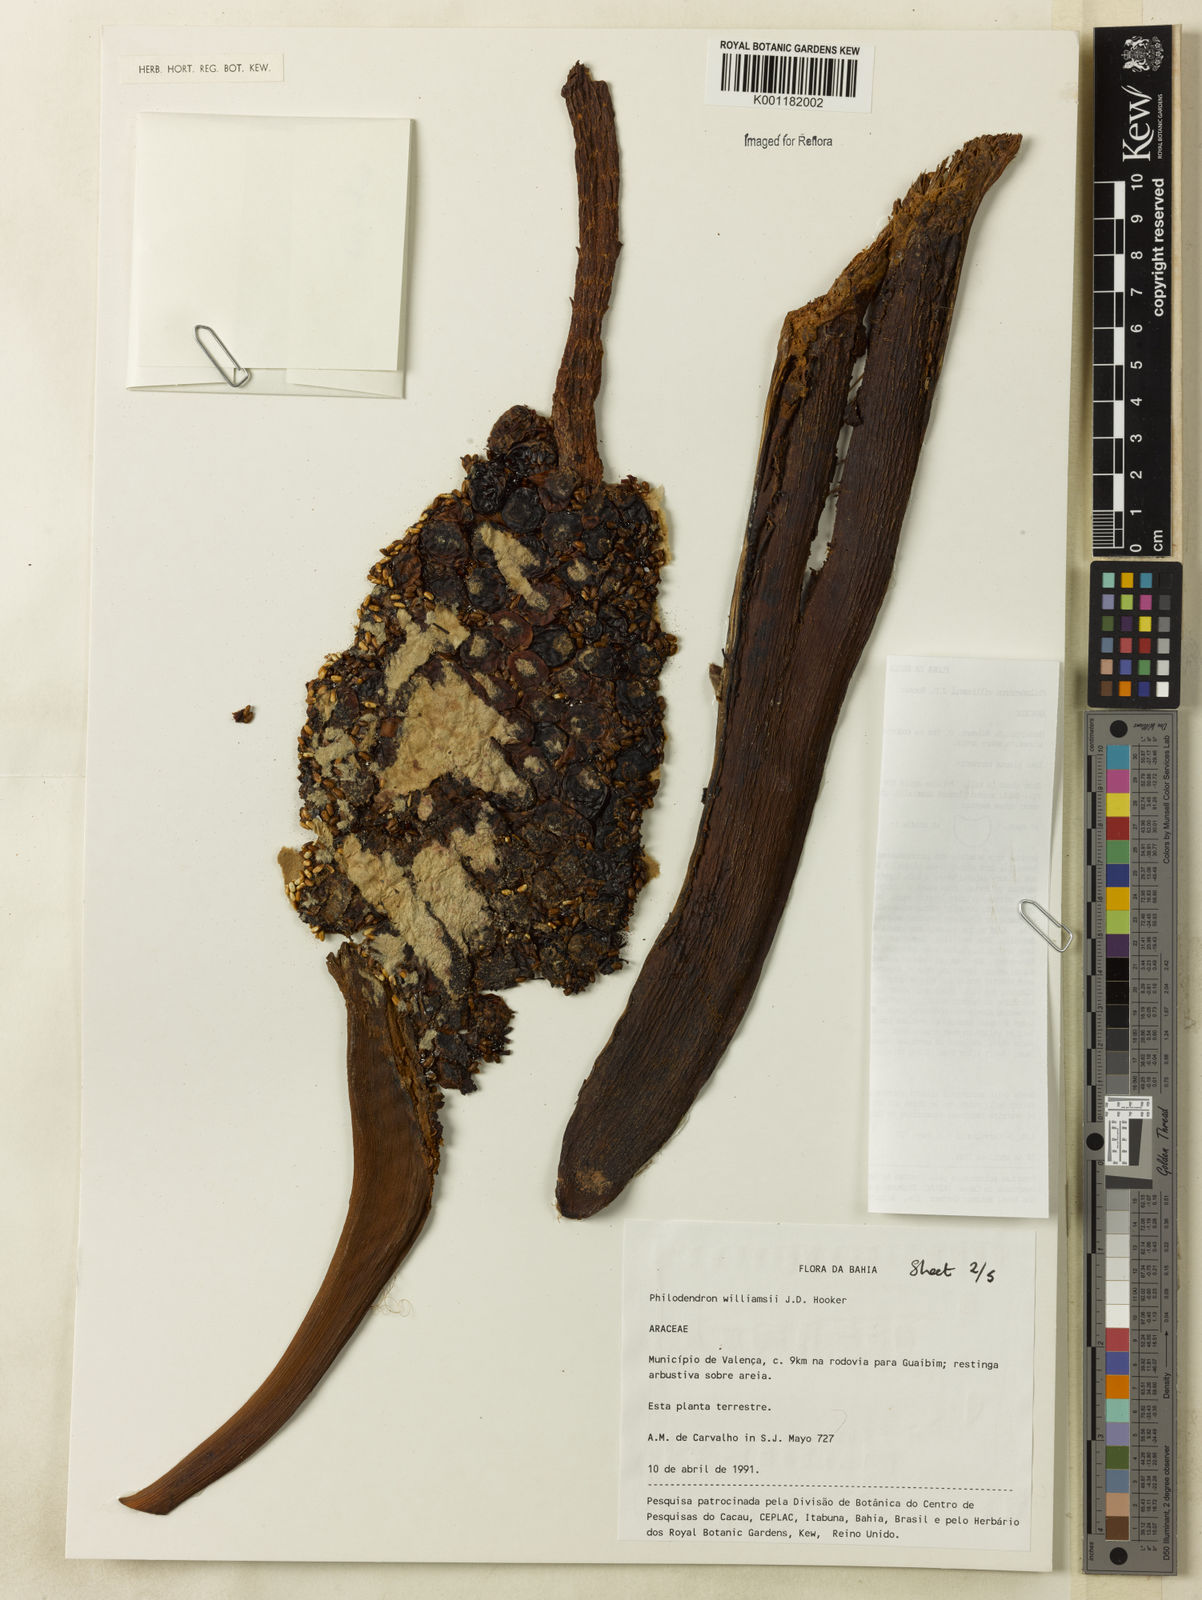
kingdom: Plantae
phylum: Tracheophyta
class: Liliopsida
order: Alismatales
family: Araceae
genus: Thaumatophyllum
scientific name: Thaumatophyllum williamsii
